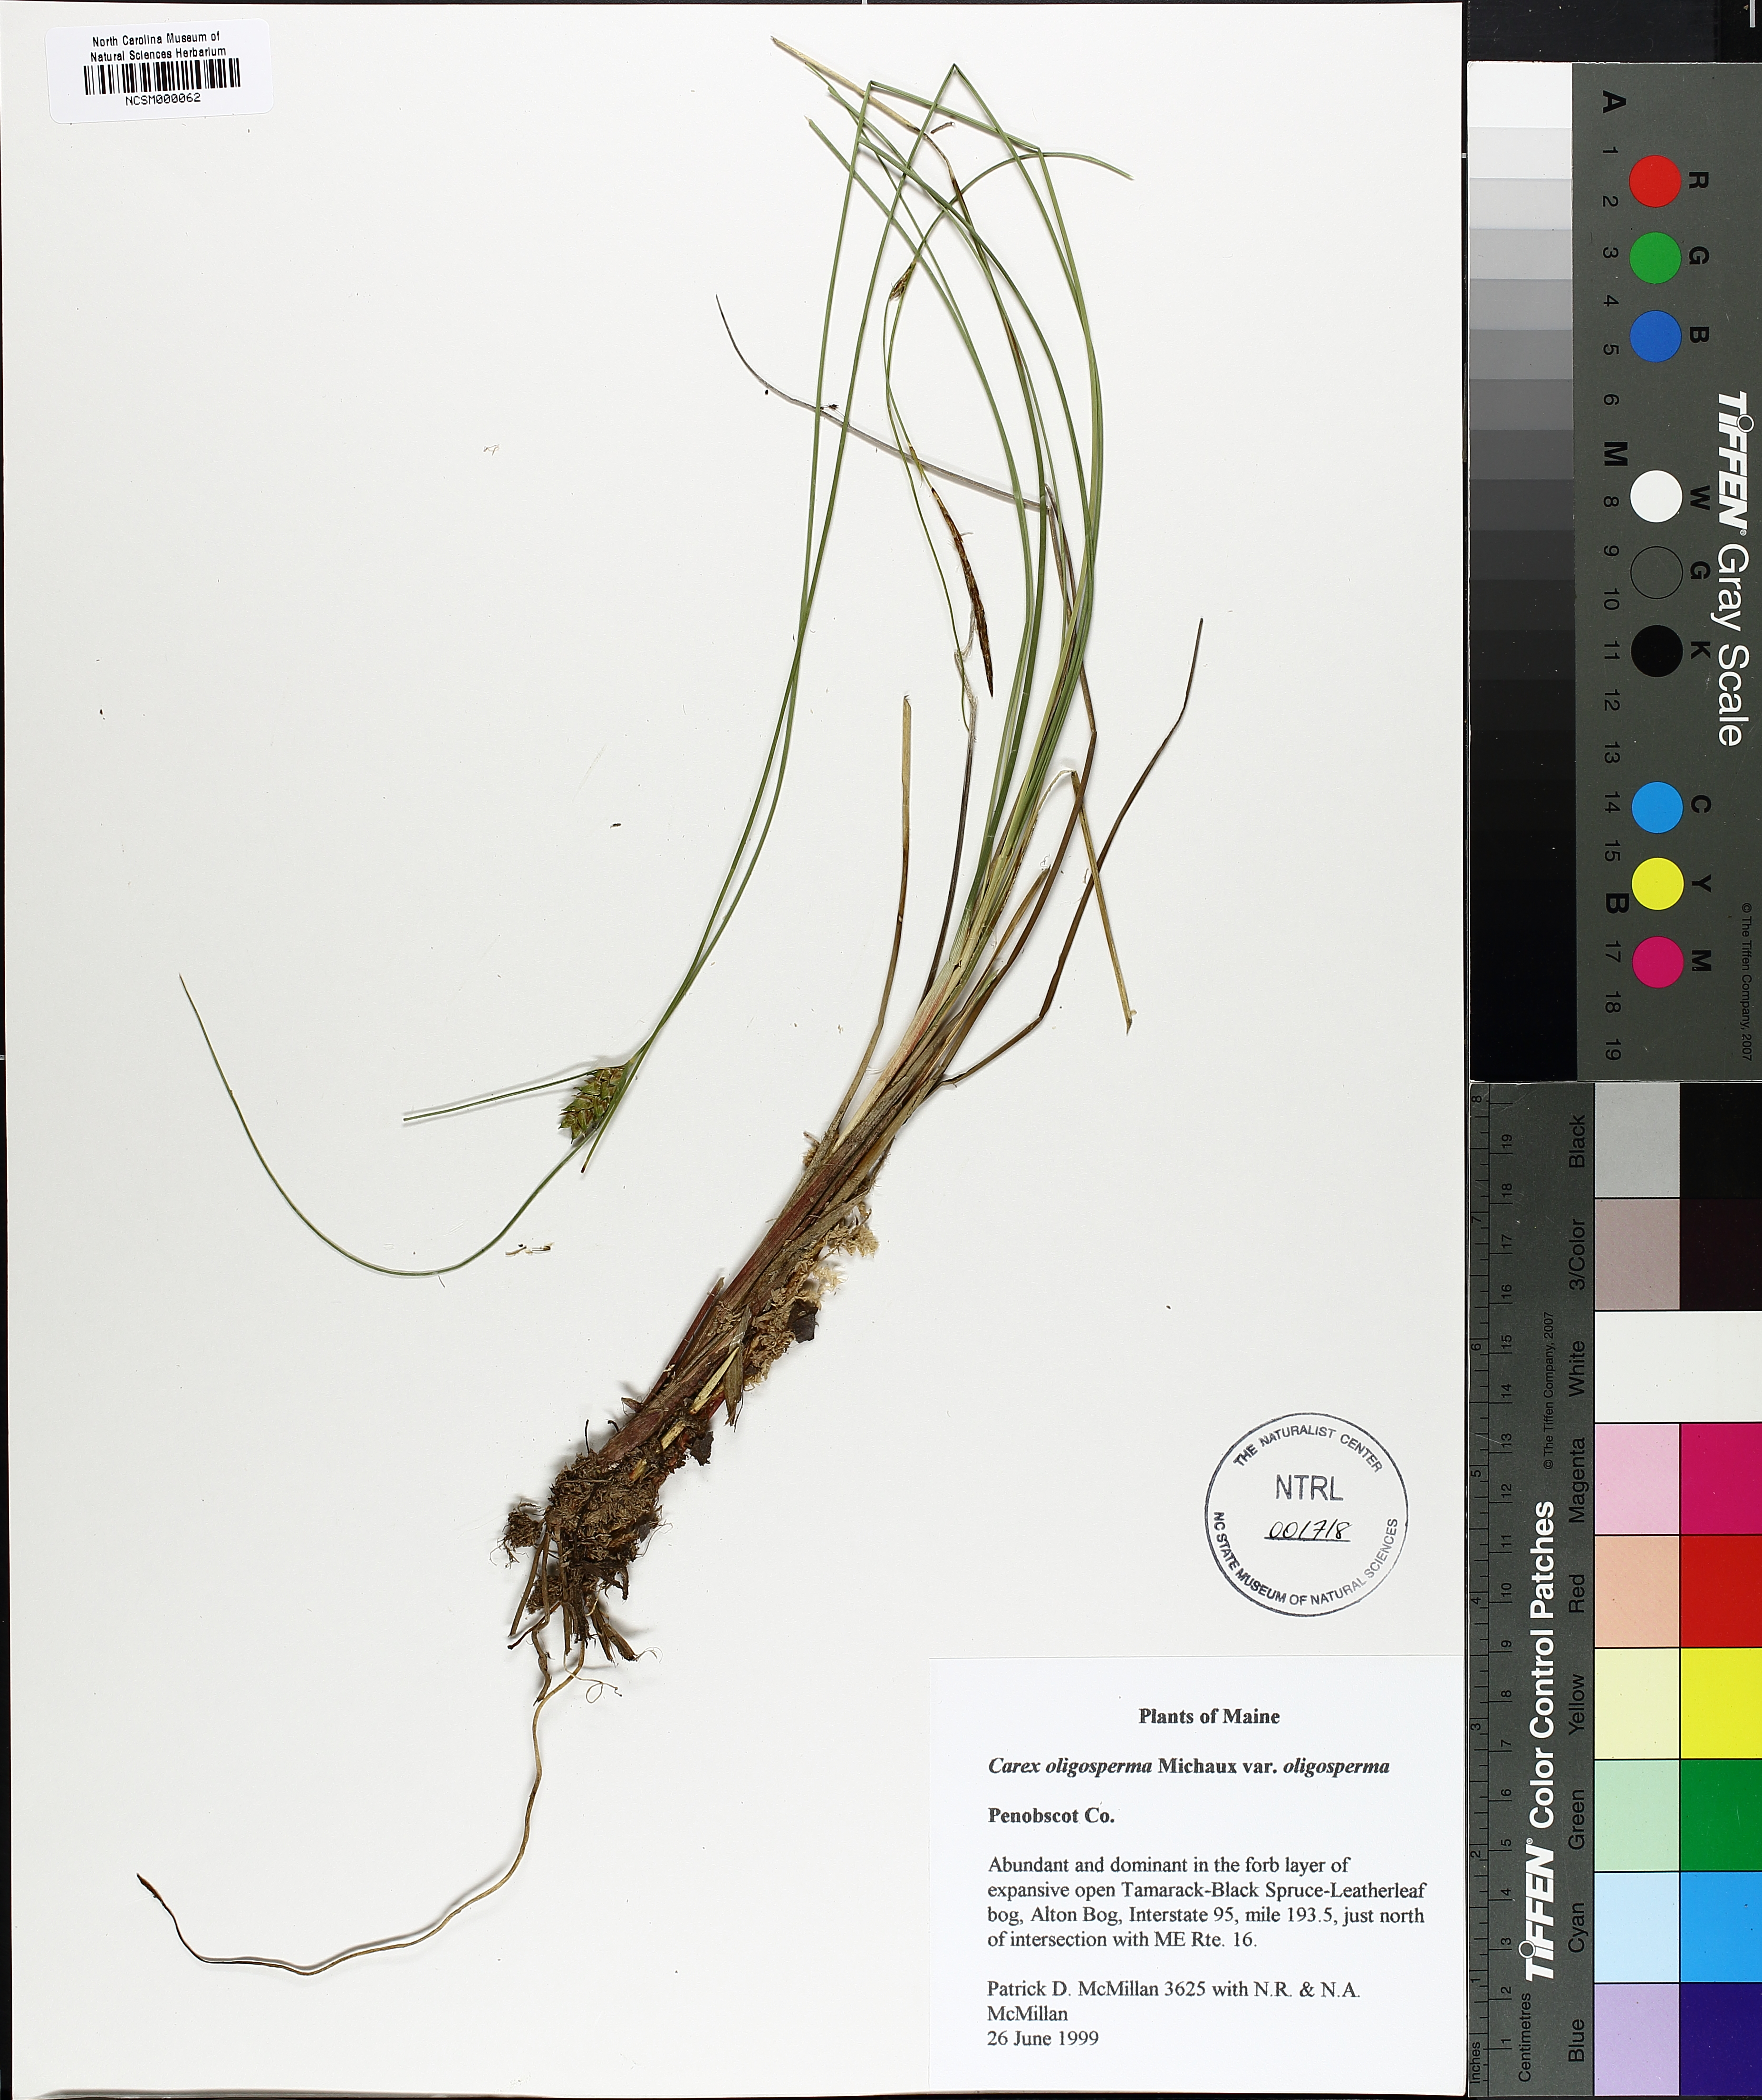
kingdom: Plantae
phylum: Tracheophyta
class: Liliopsida
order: Poales
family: Cyperaceae
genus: Carex
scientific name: Carex oligosperma
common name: Few-seed sedge
